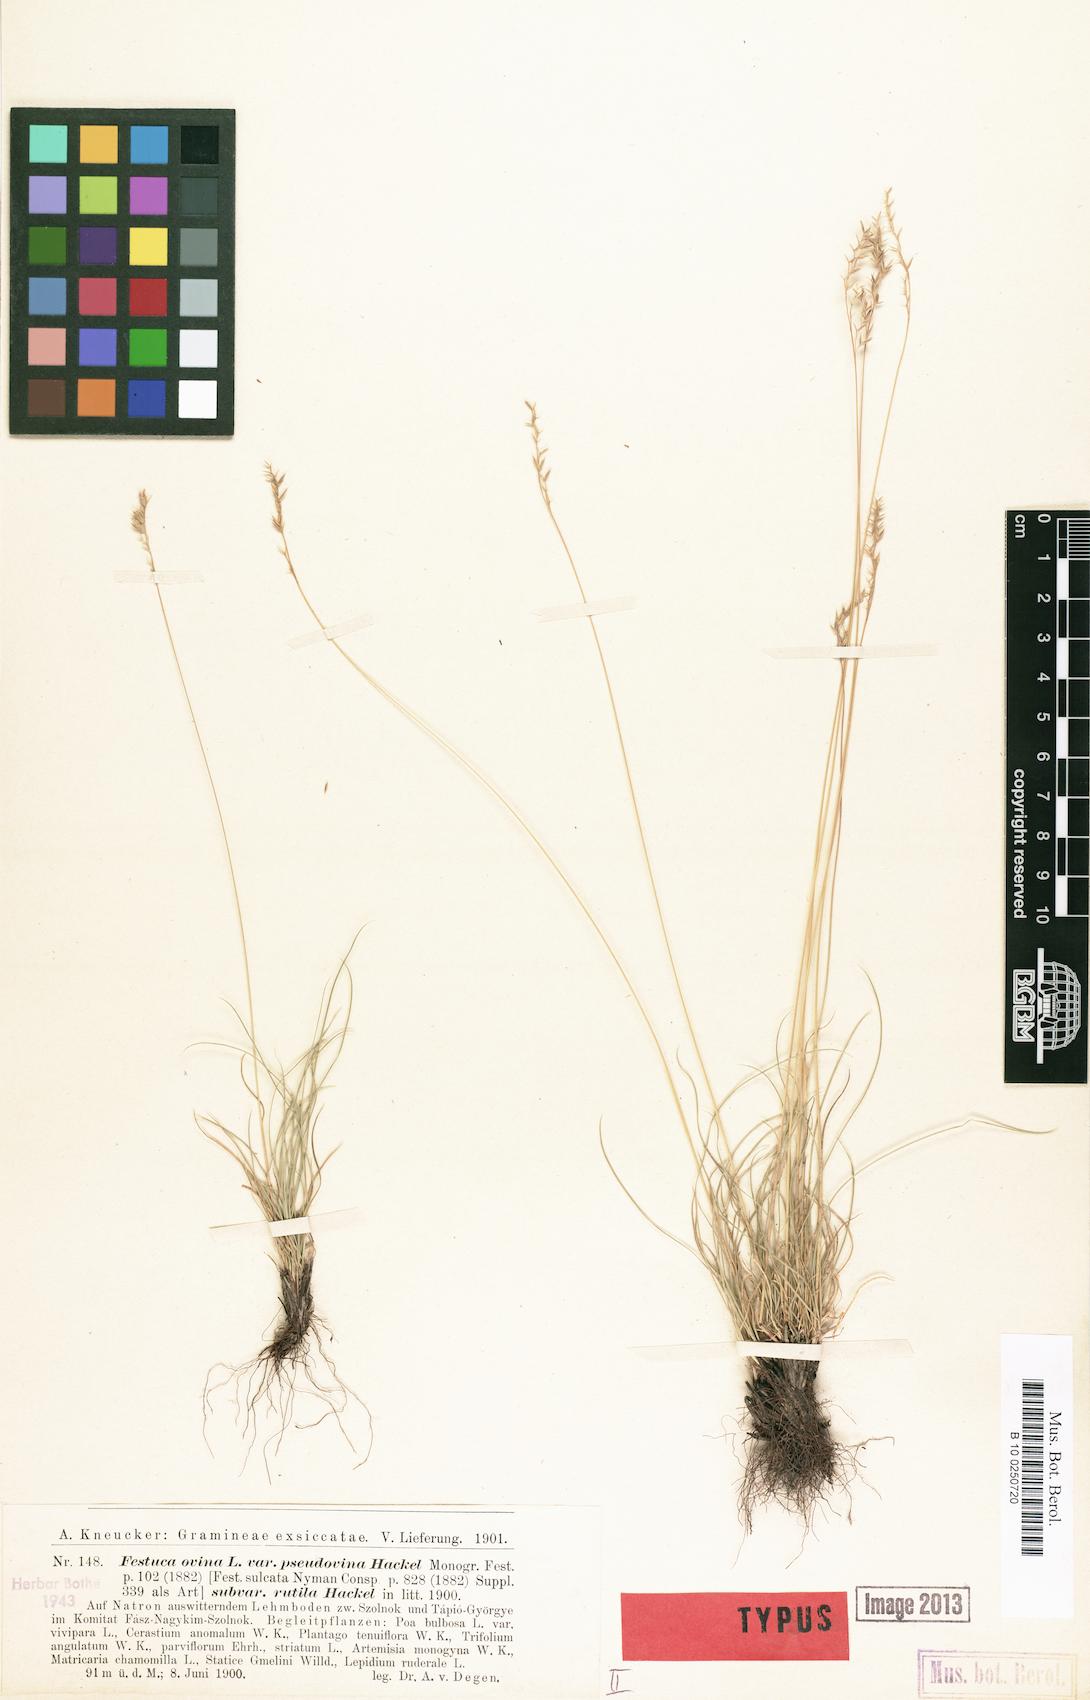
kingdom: Plantae
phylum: Tracheophyta
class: Liliopsida
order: Poales
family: Poaceae
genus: Festuca
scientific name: Festuca ovina
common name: Sheep fescue
